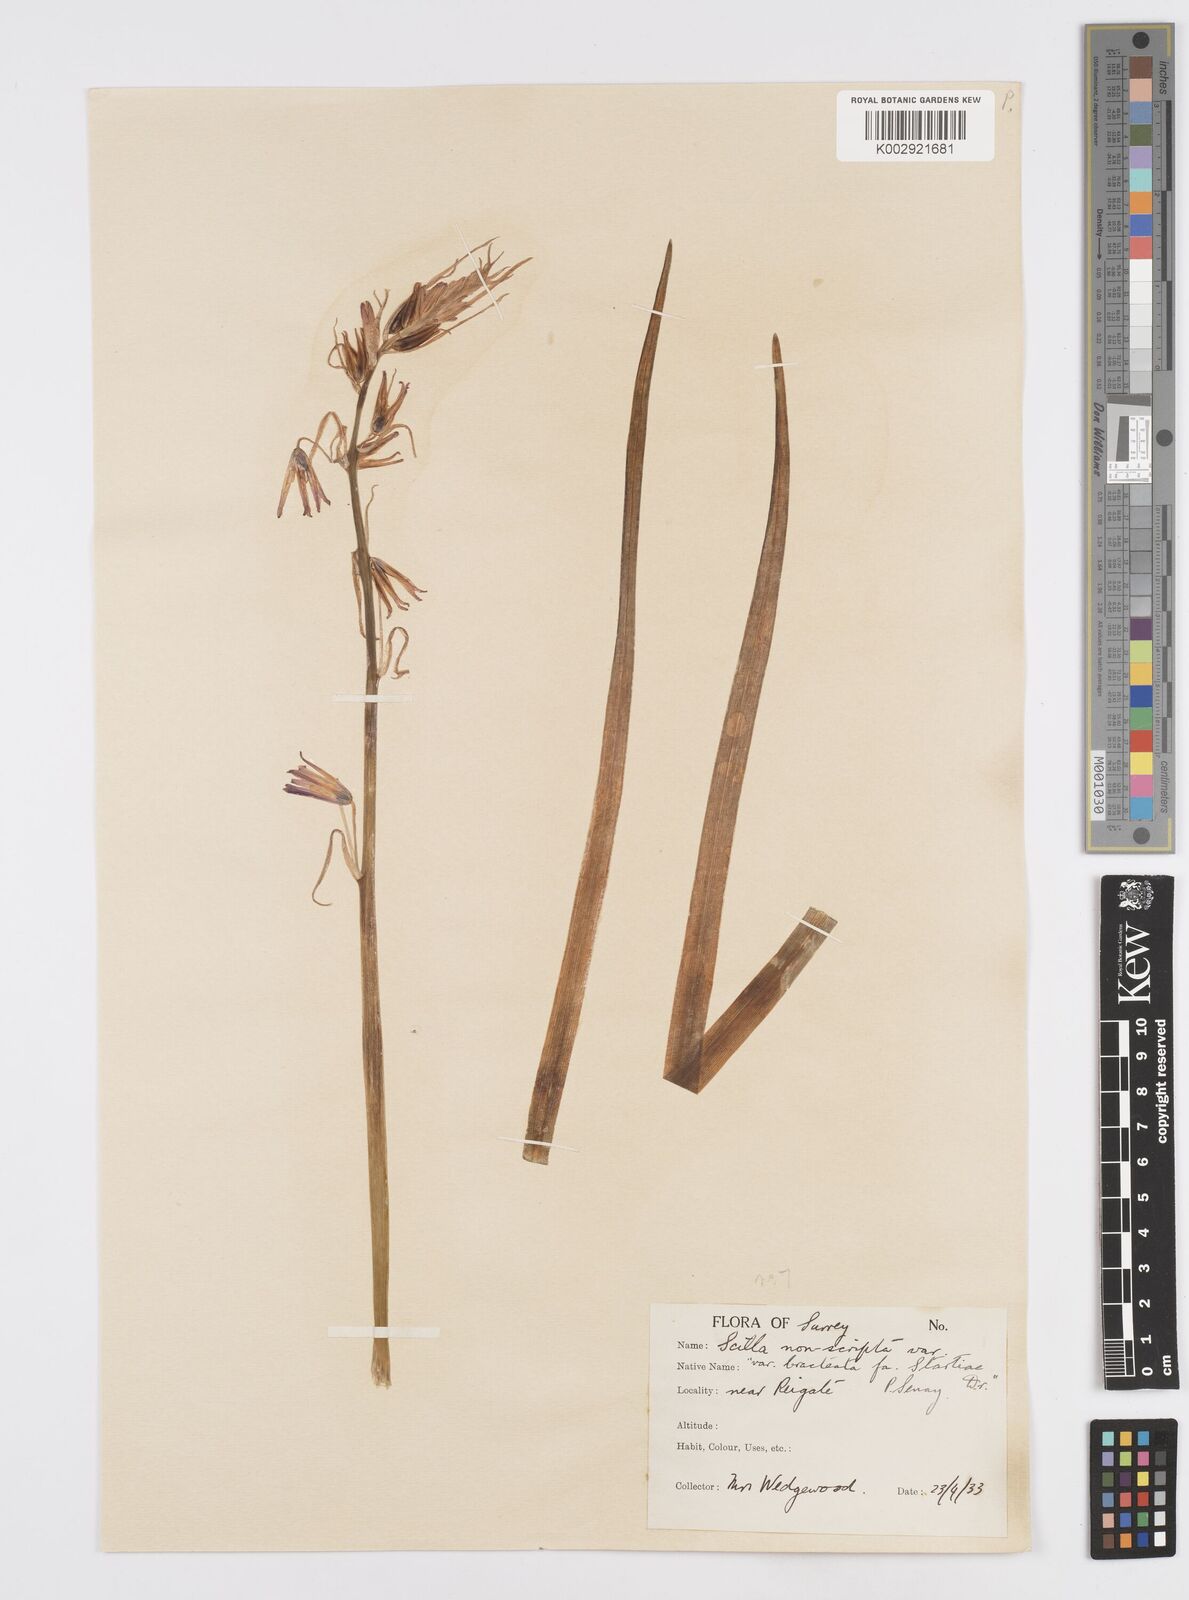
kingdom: Plantae
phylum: Tracheophyta
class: Liliopsida
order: Asparagales
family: Asparagaceae
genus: Hyacinthoides
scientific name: Hyacinthoides
